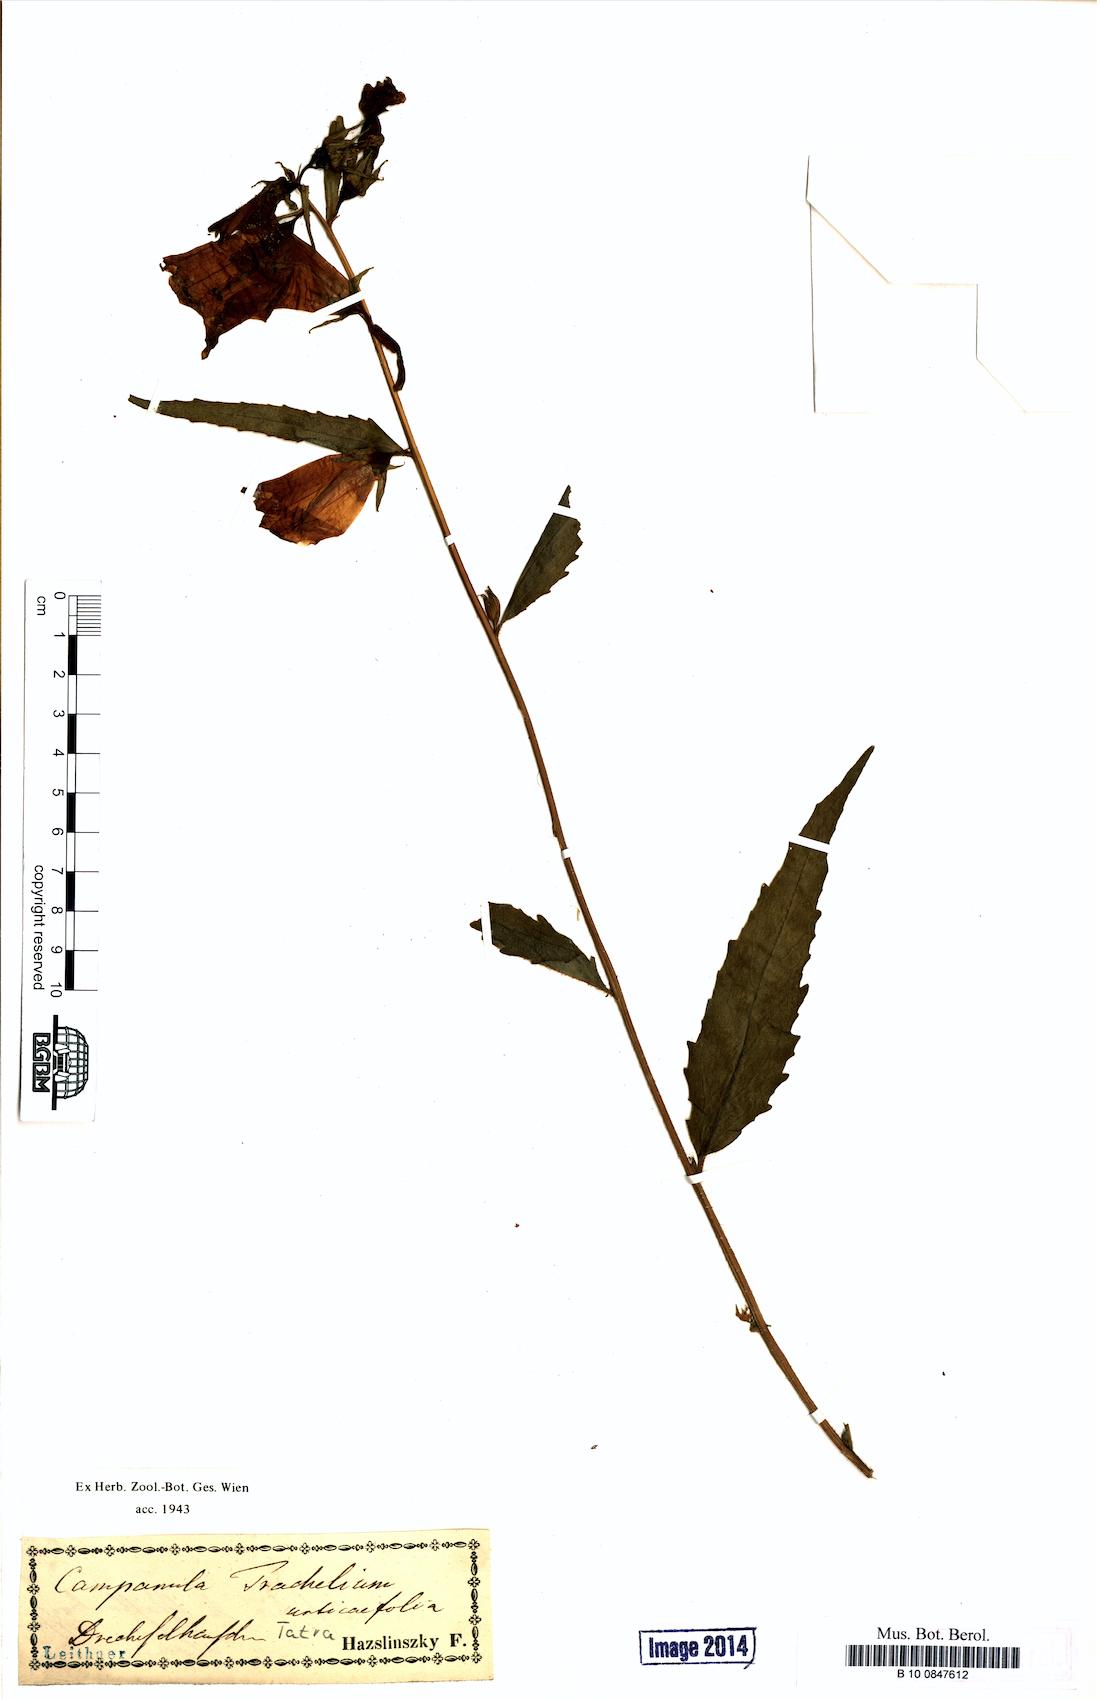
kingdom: Plantae
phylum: Tracheophyta
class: Magnoliopsida
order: Asterales
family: Campanulaceae
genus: Campanula
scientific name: Campanula trachelium
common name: Nettle-leaved bellflower
